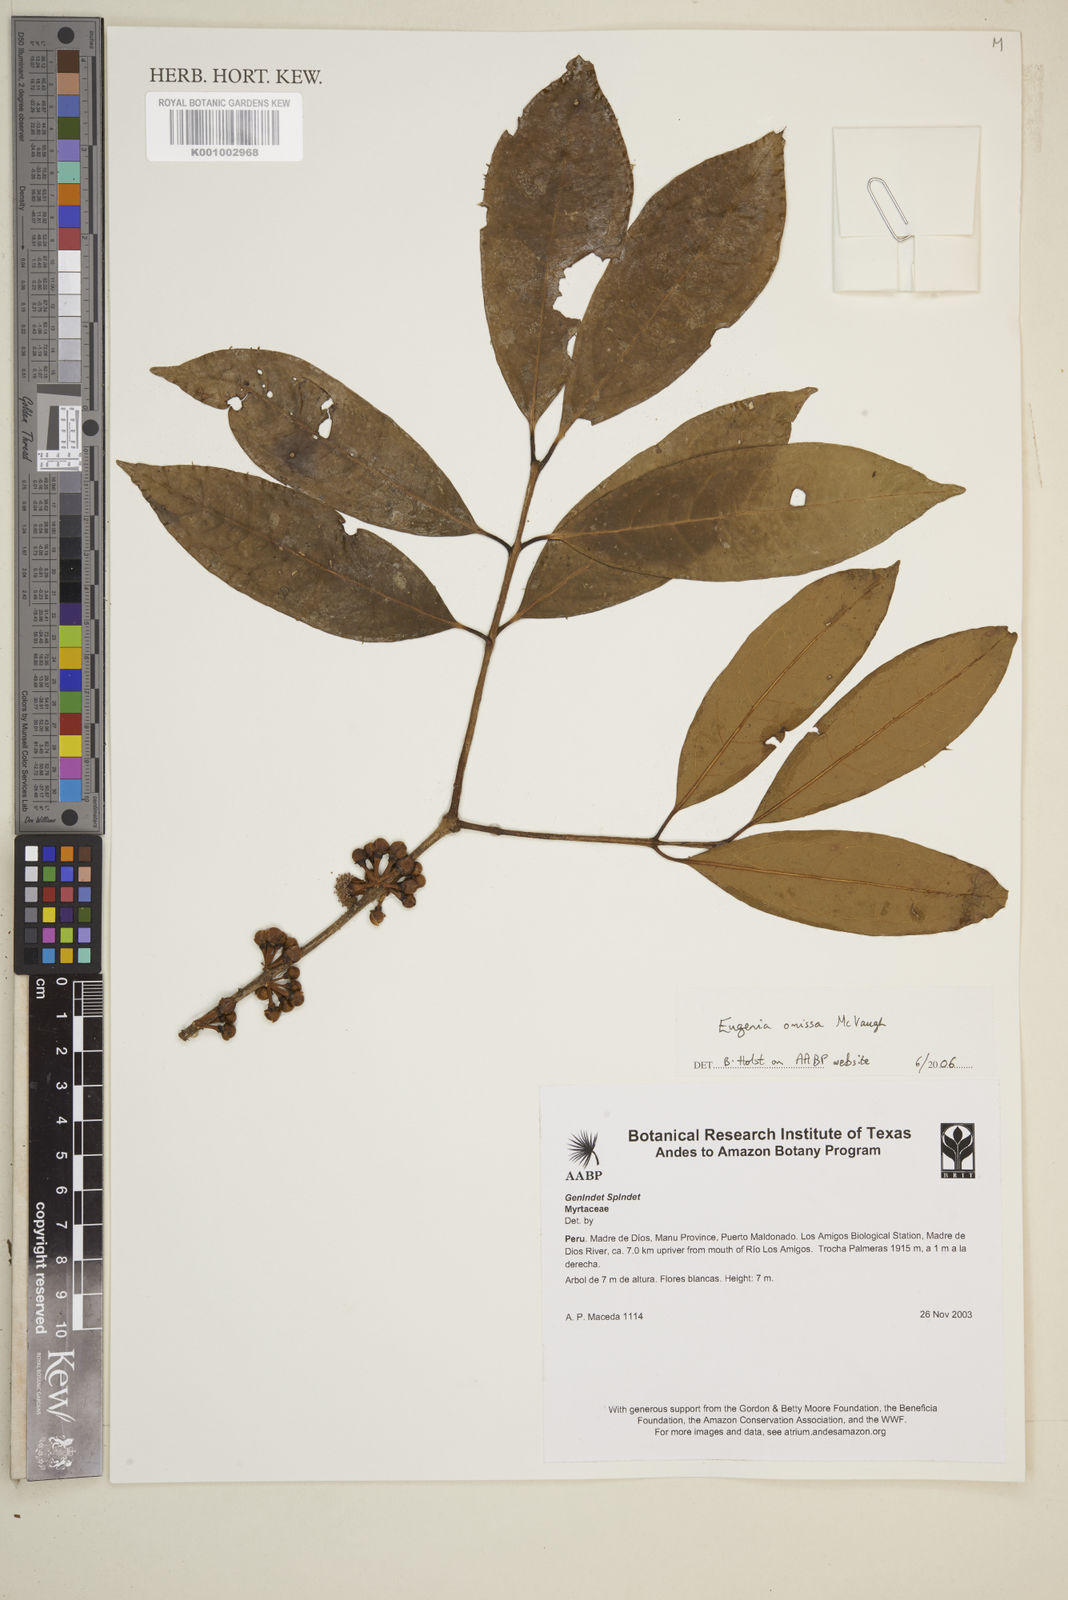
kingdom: Plantae
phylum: Tracheophyta
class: Magnoliopsida
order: Myrtales
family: Myrtaceae
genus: Eugenia
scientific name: Eugenia omissa
